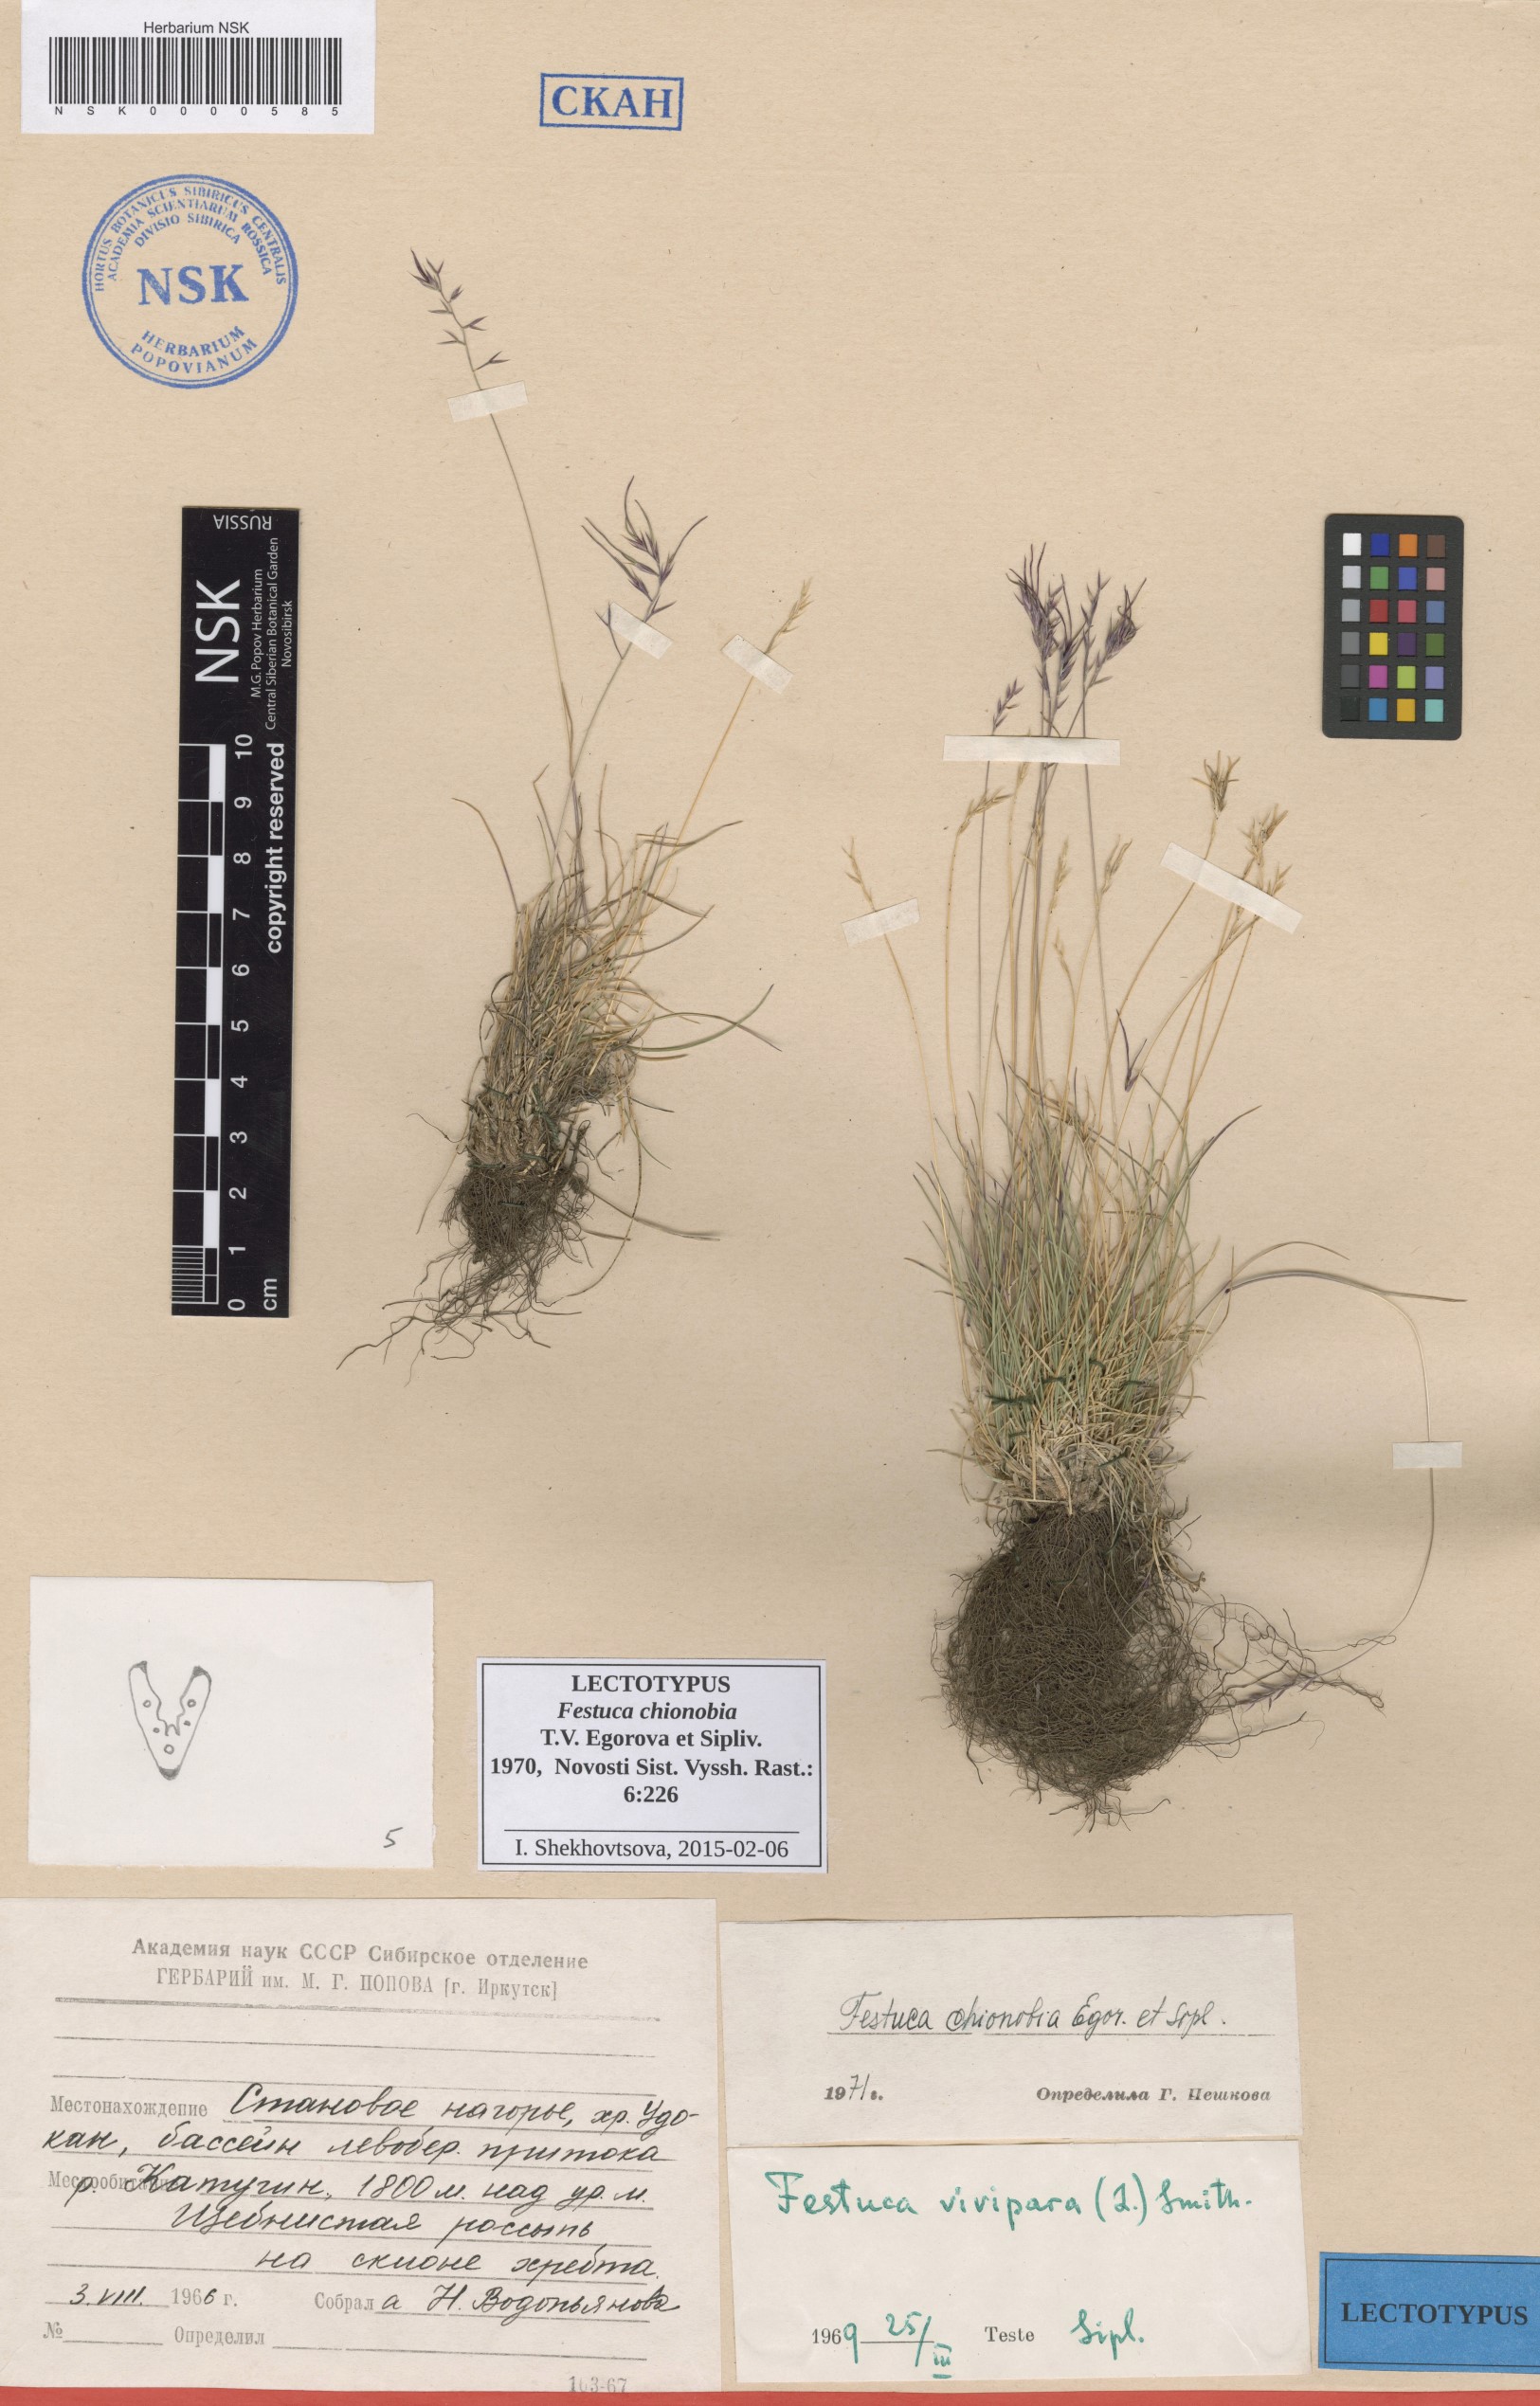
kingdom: Plantae
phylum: Tracheophyta
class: Liliopsida
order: Poales
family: Poaceae
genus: Festuca
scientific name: Festuca auriculata
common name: Eared fescue
